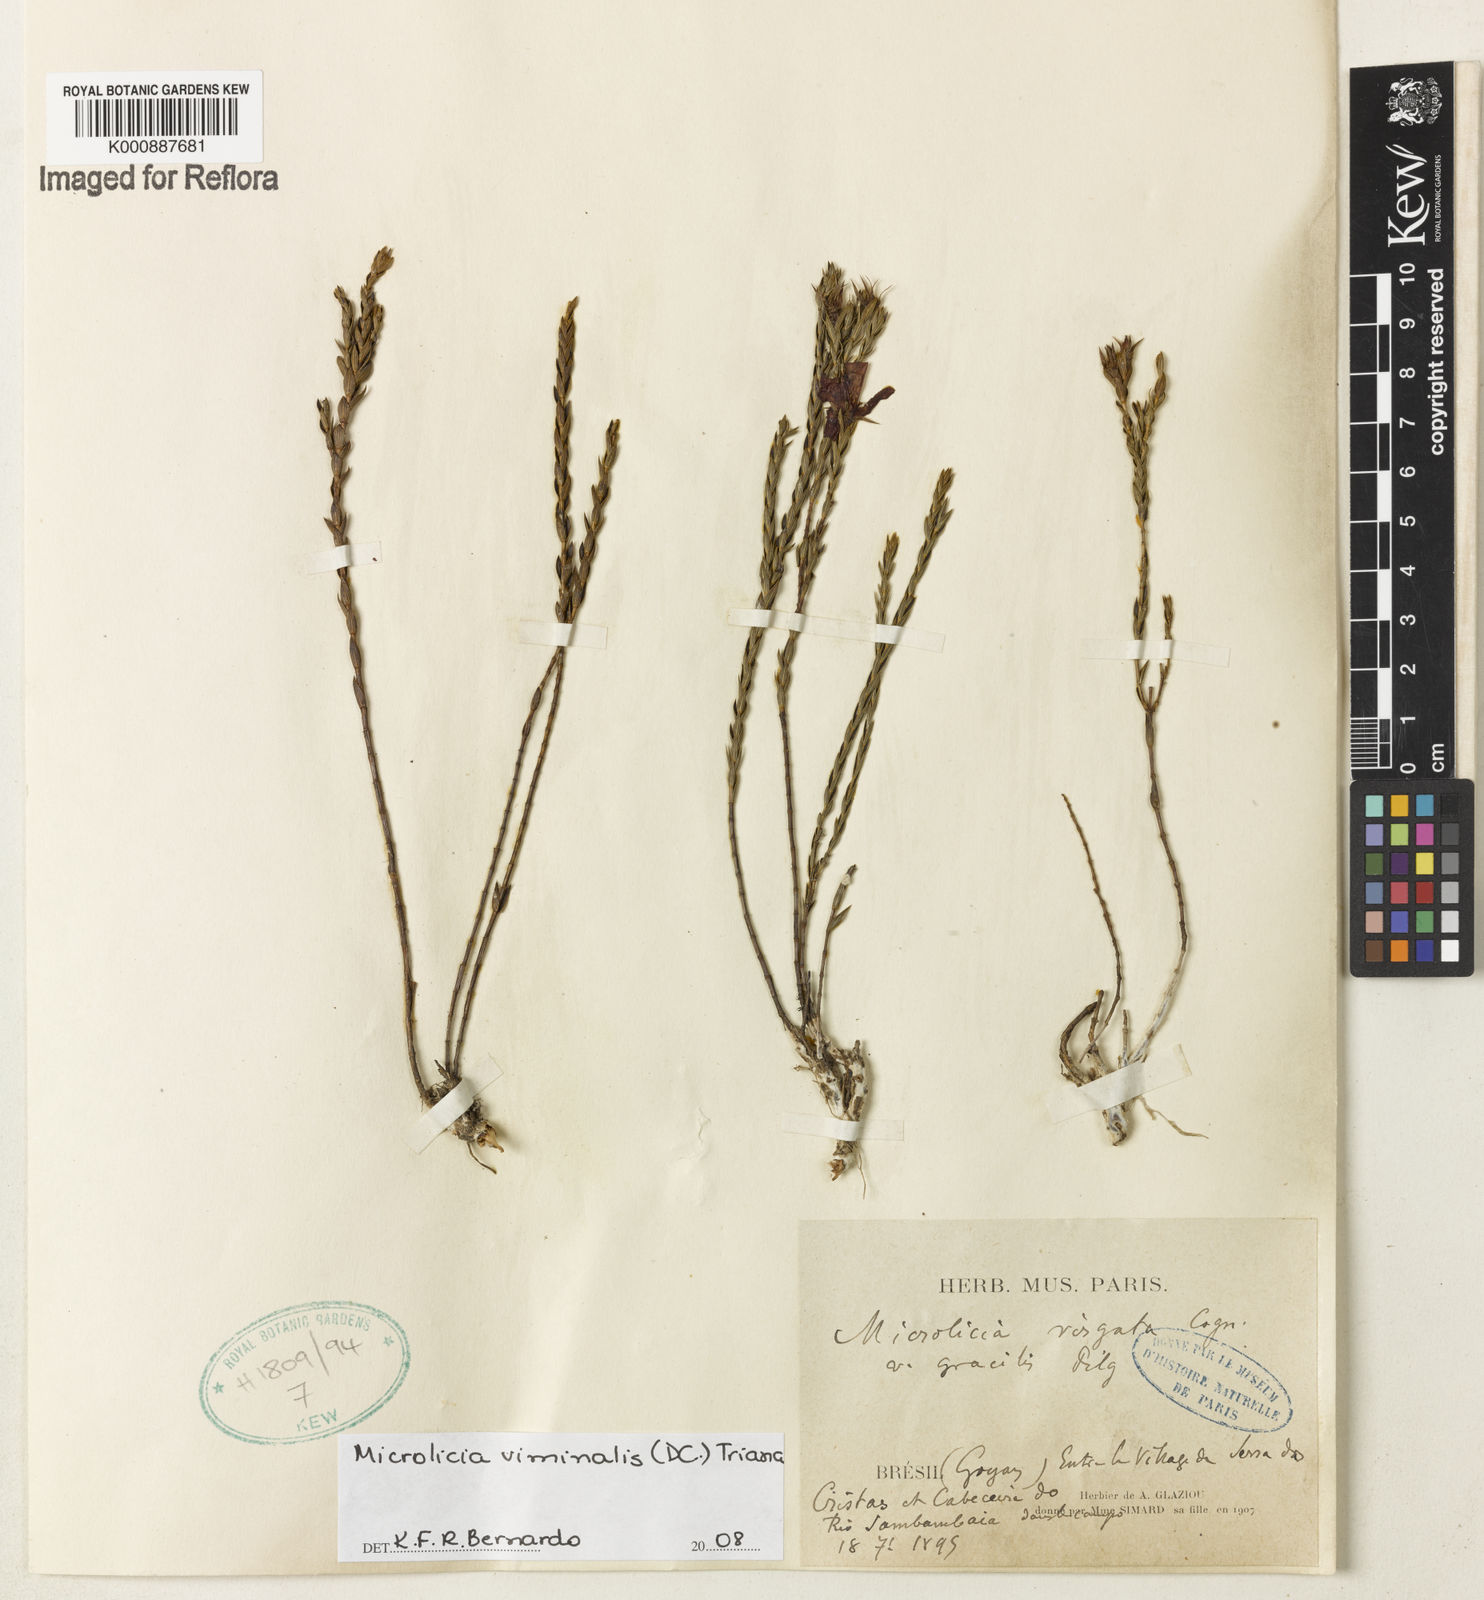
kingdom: Plantae
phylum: Tracheophyta
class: Magnoliopsida
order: Myrtales
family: Melastomataceae
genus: Microlicia
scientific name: Microlicia viminalis
